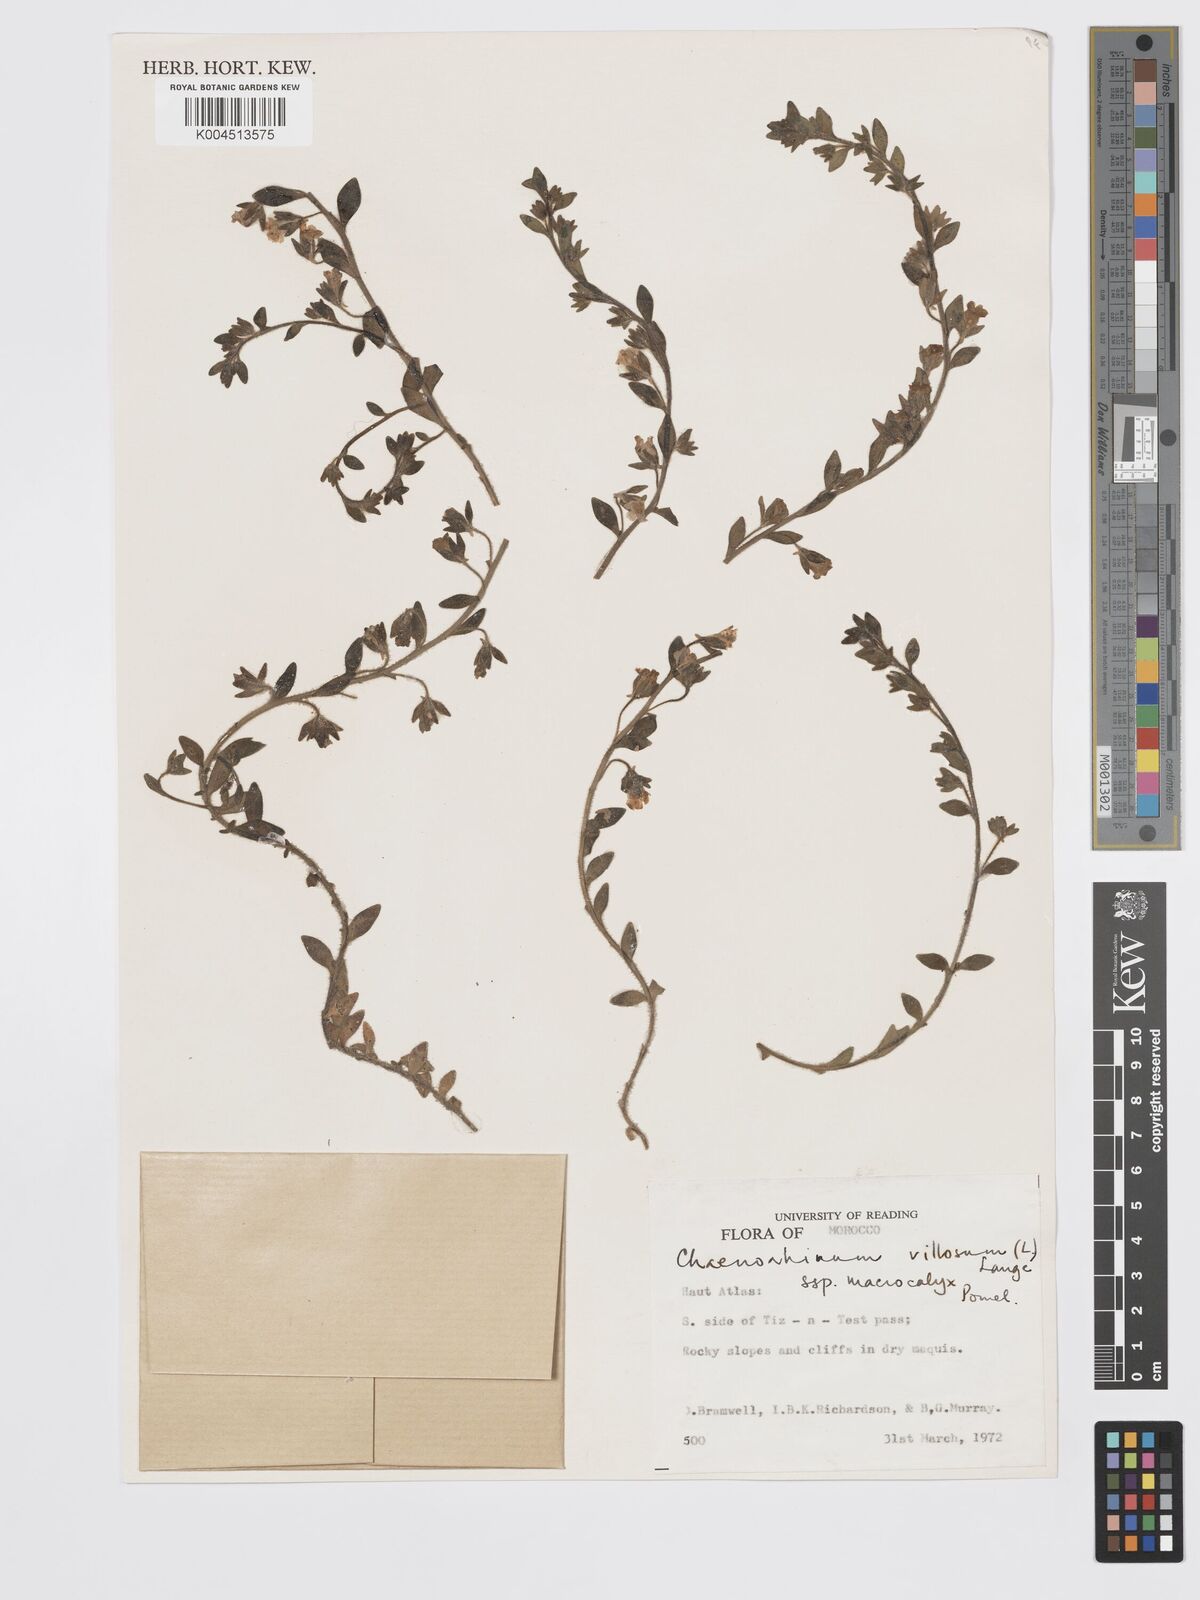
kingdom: Plantae
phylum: Tracheophyta
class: Magnoliopsida
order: Lamiales
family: Plantaginaceae
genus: Chaenorhinum
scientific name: Chaenorhinum villosum
